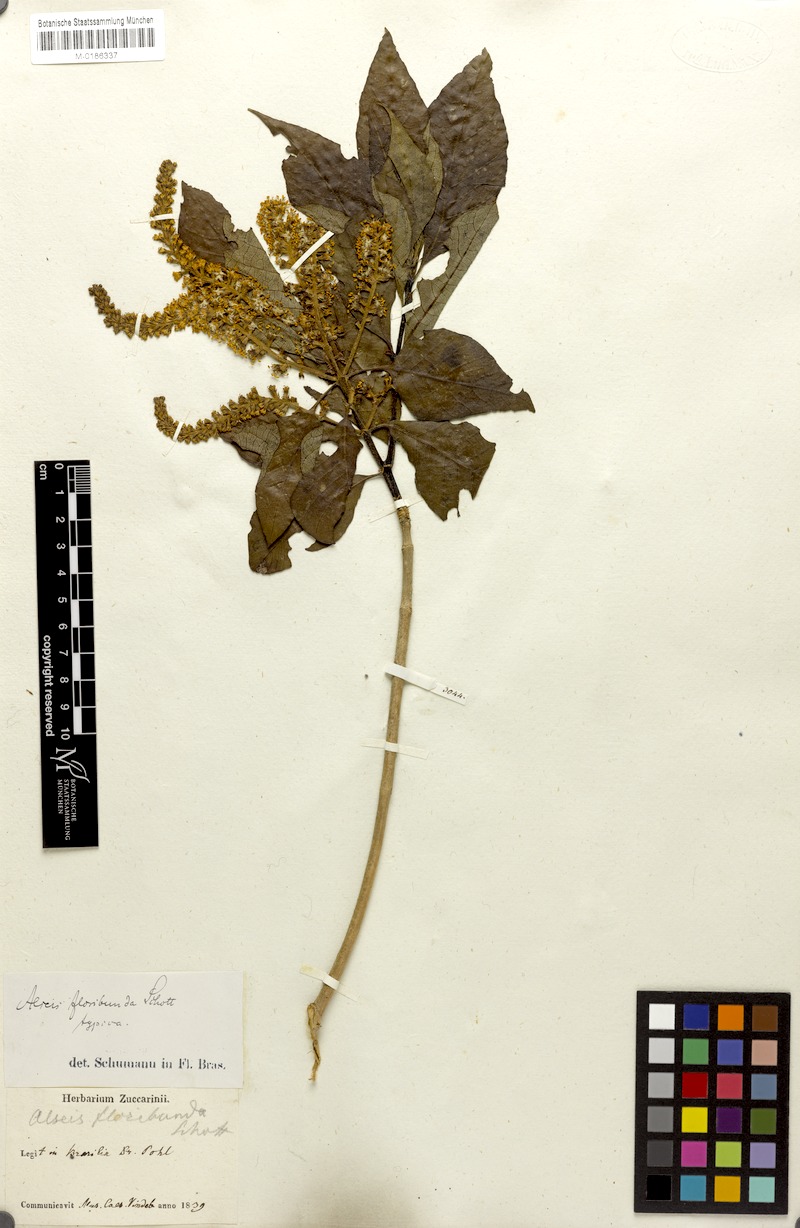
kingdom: Plantae
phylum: Tracheophyta
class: Magnoliopsida
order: Gentianales
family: Rubiaceae
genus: Alseis
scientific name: Alseis floribunda
